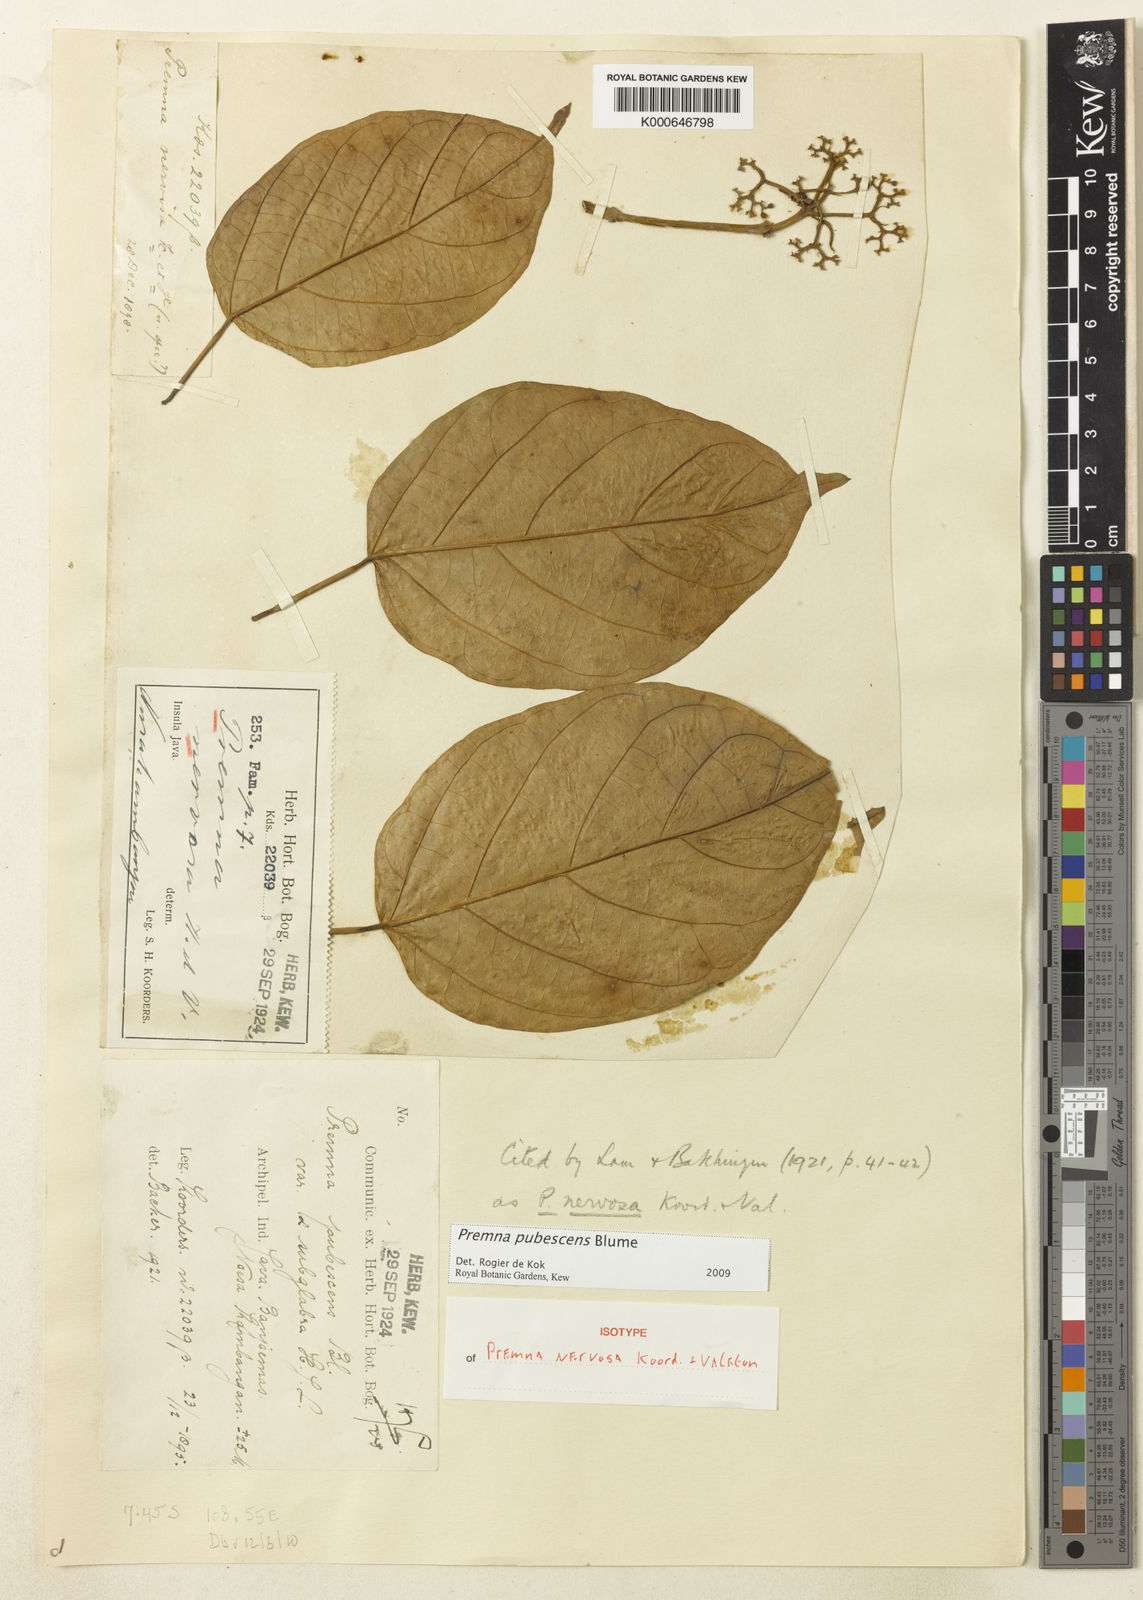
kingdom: Plantae
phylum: Tracheophyta
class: Magnoliopsida
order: Lamiales
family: Lamiaceae
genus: Premna
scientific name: Premna pubescens
